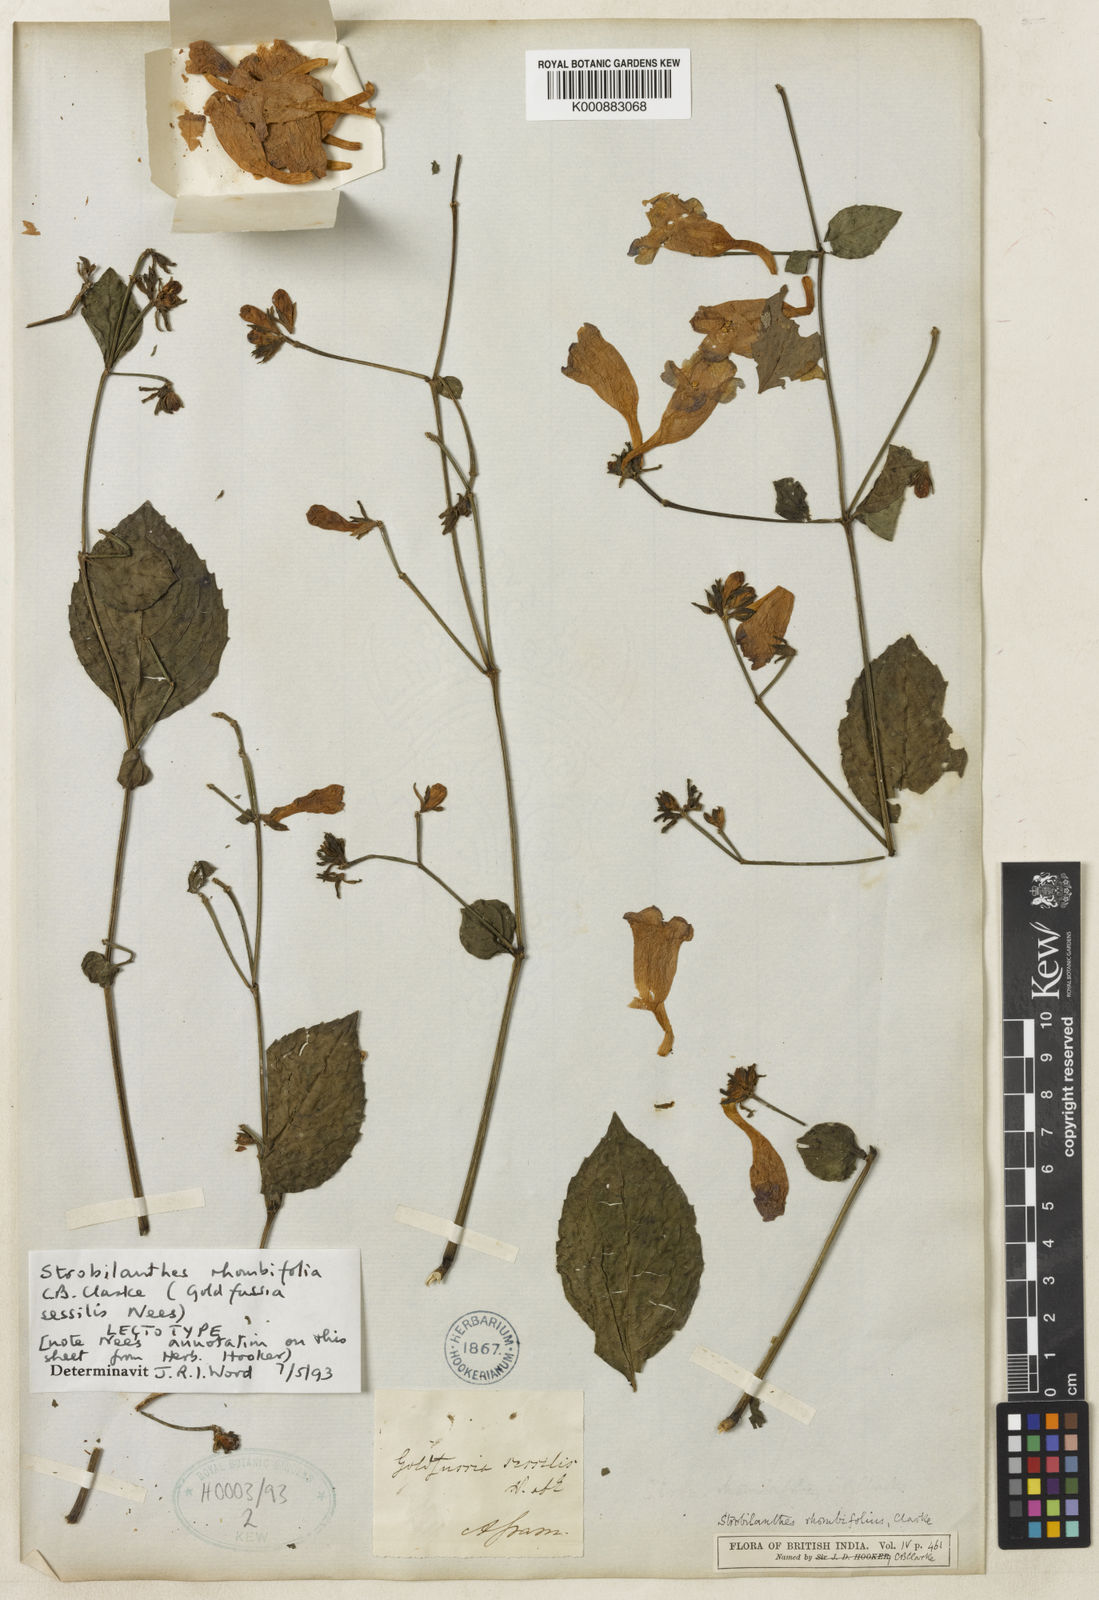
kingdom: Plantae
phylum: Tracheophyta
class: Magnoliopsida
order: Lamiales
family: Acanthaceae
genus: Strobilanthes
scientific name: Strobilanthes rhombifolia
